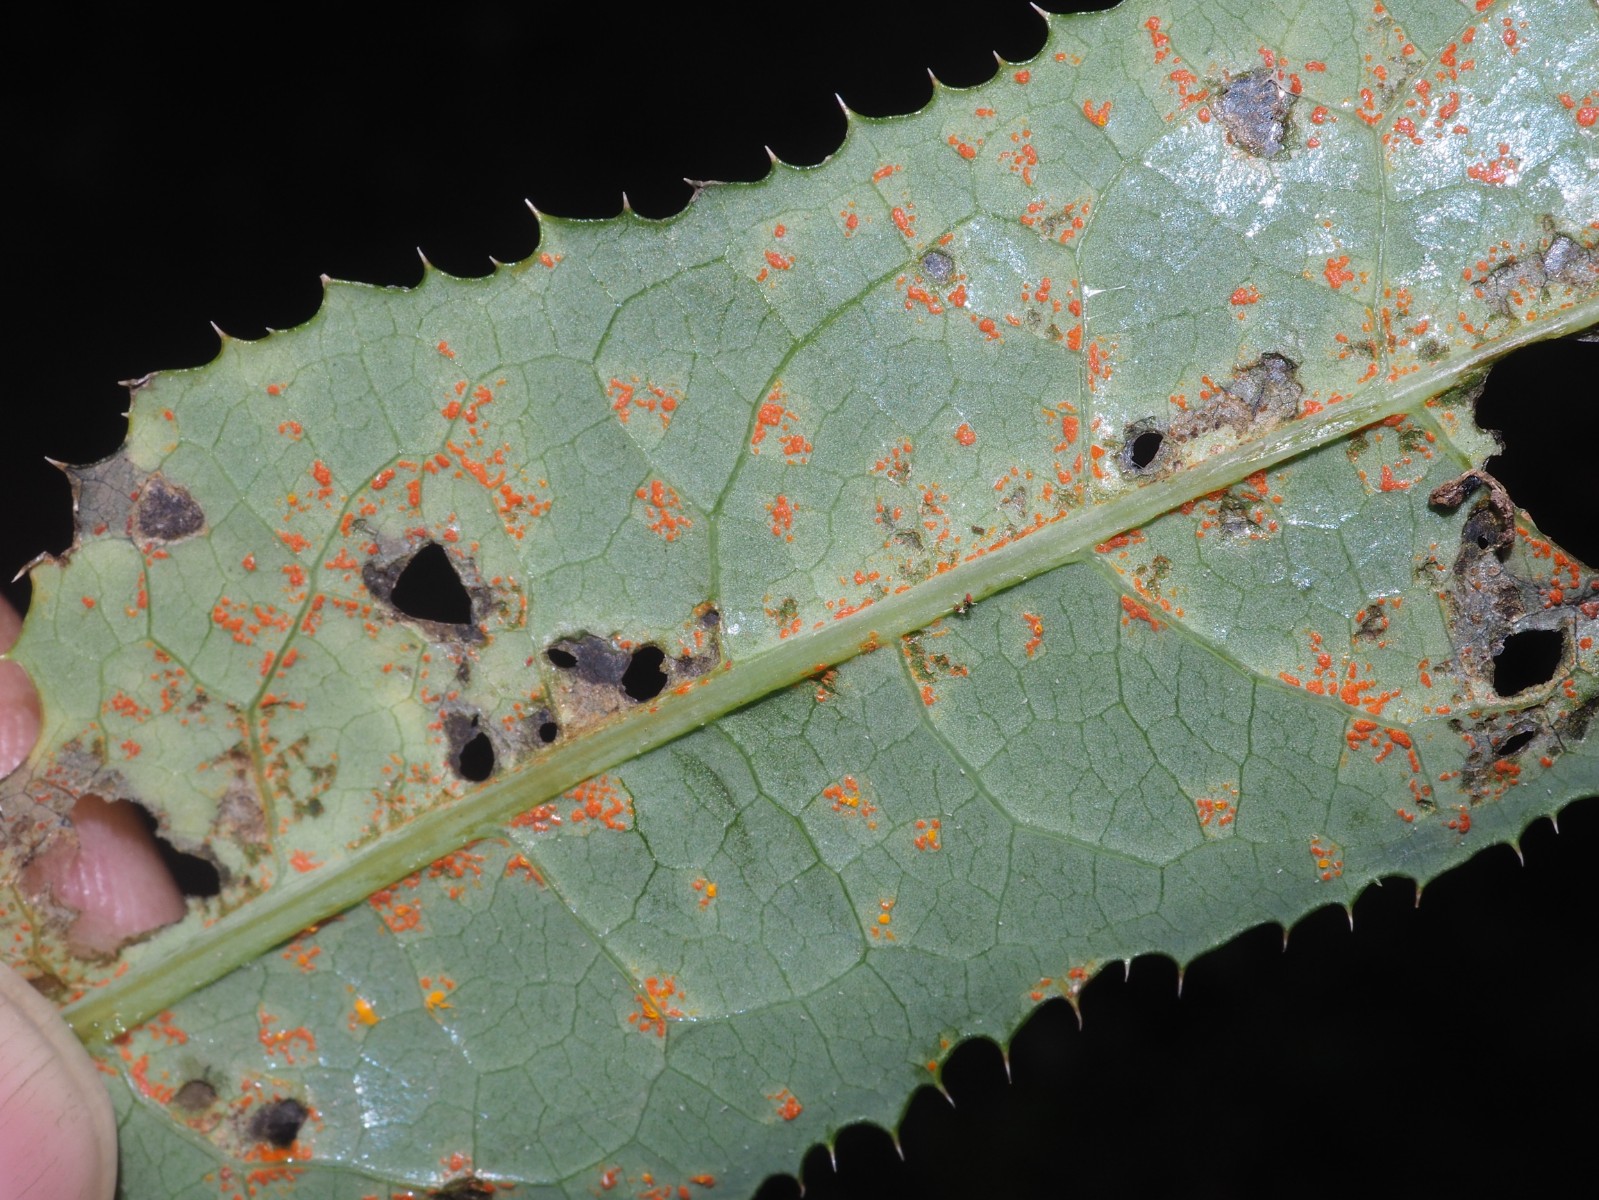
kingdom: Fungi
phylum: Basidiomycota
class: Pucciniomycetes
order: Pucciniales
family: Coleosporiaceae
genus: Coleosporium
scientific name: Coleosporium sonchi
